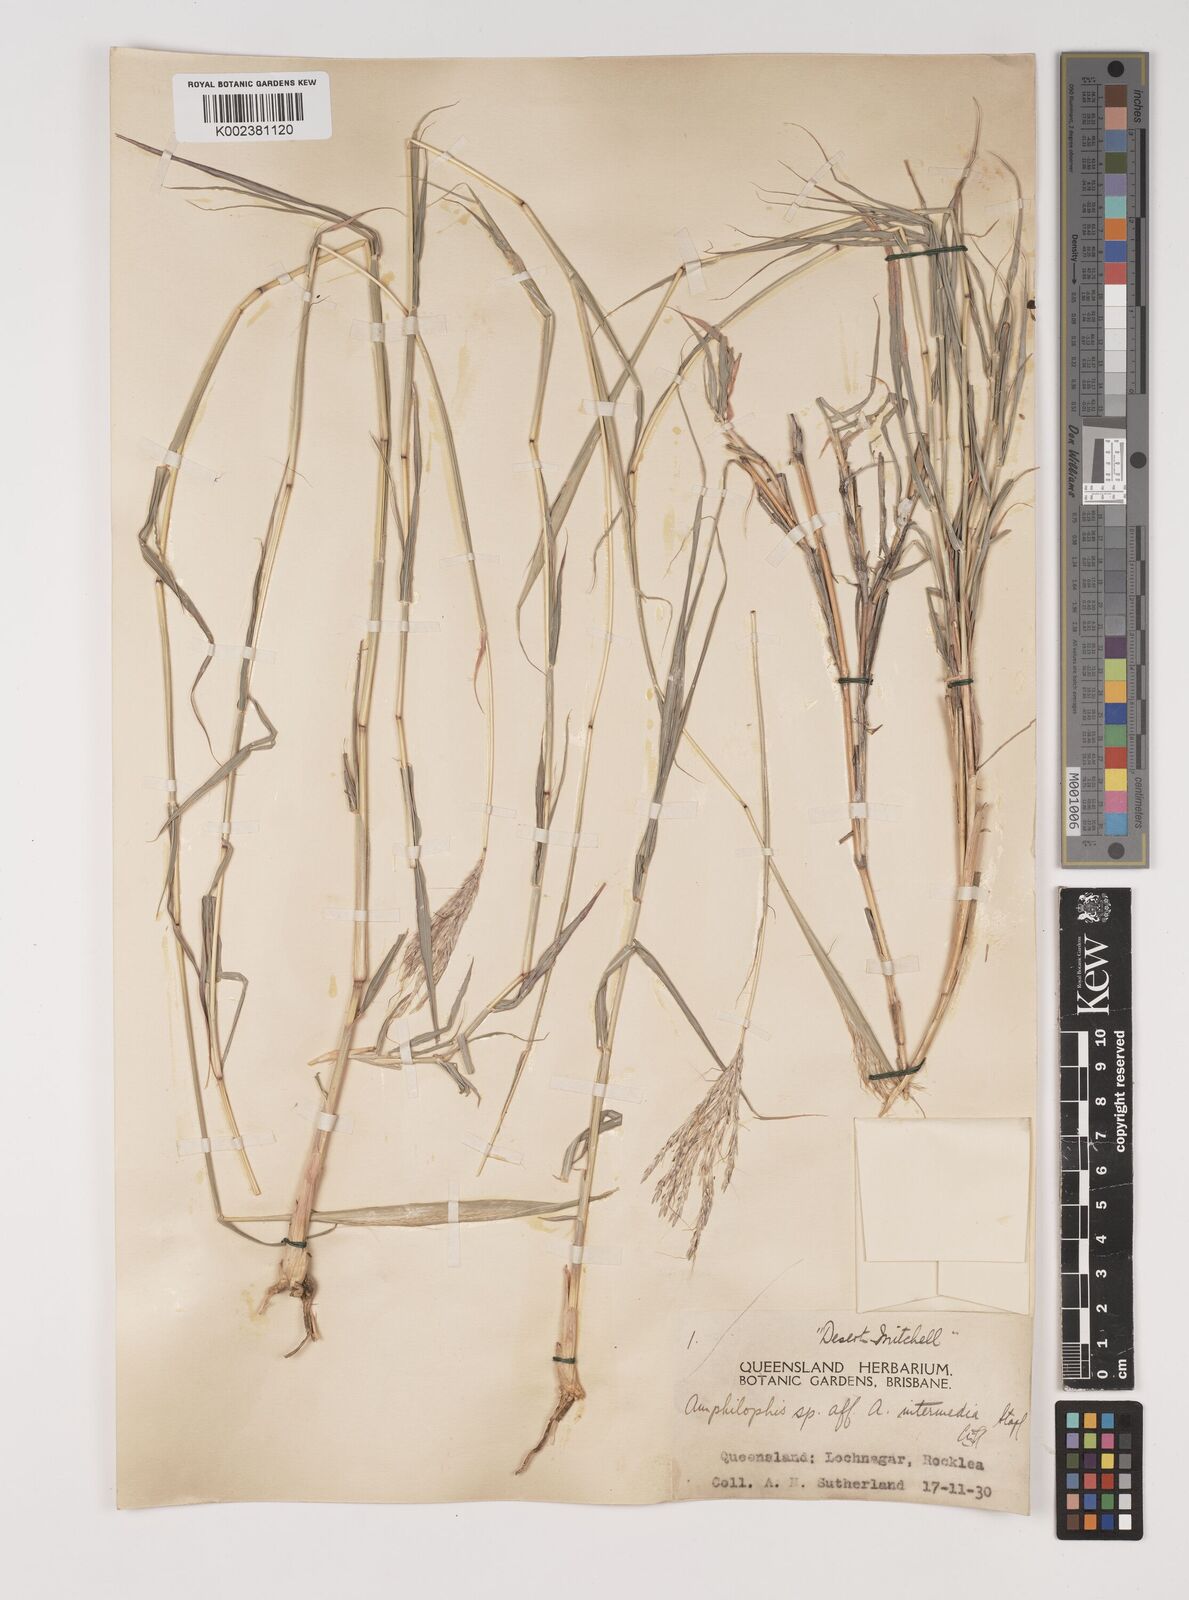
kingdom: Plantae
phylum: Tracheophyta
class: Liliopsida
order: Poales
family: Poaceae
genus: Bothriochloa
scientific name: Bothriochloa ewartiana
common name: Desert-bluegrass
